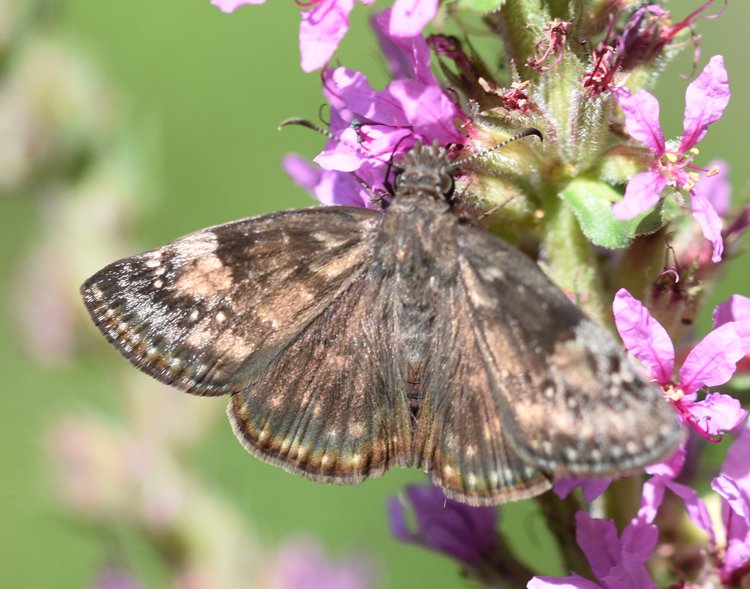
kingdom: Animalia
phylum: Arthropoda
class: Insecta
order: Lepidoptera
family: Hesperiidae
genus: Erynnis
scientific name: Erynnis
